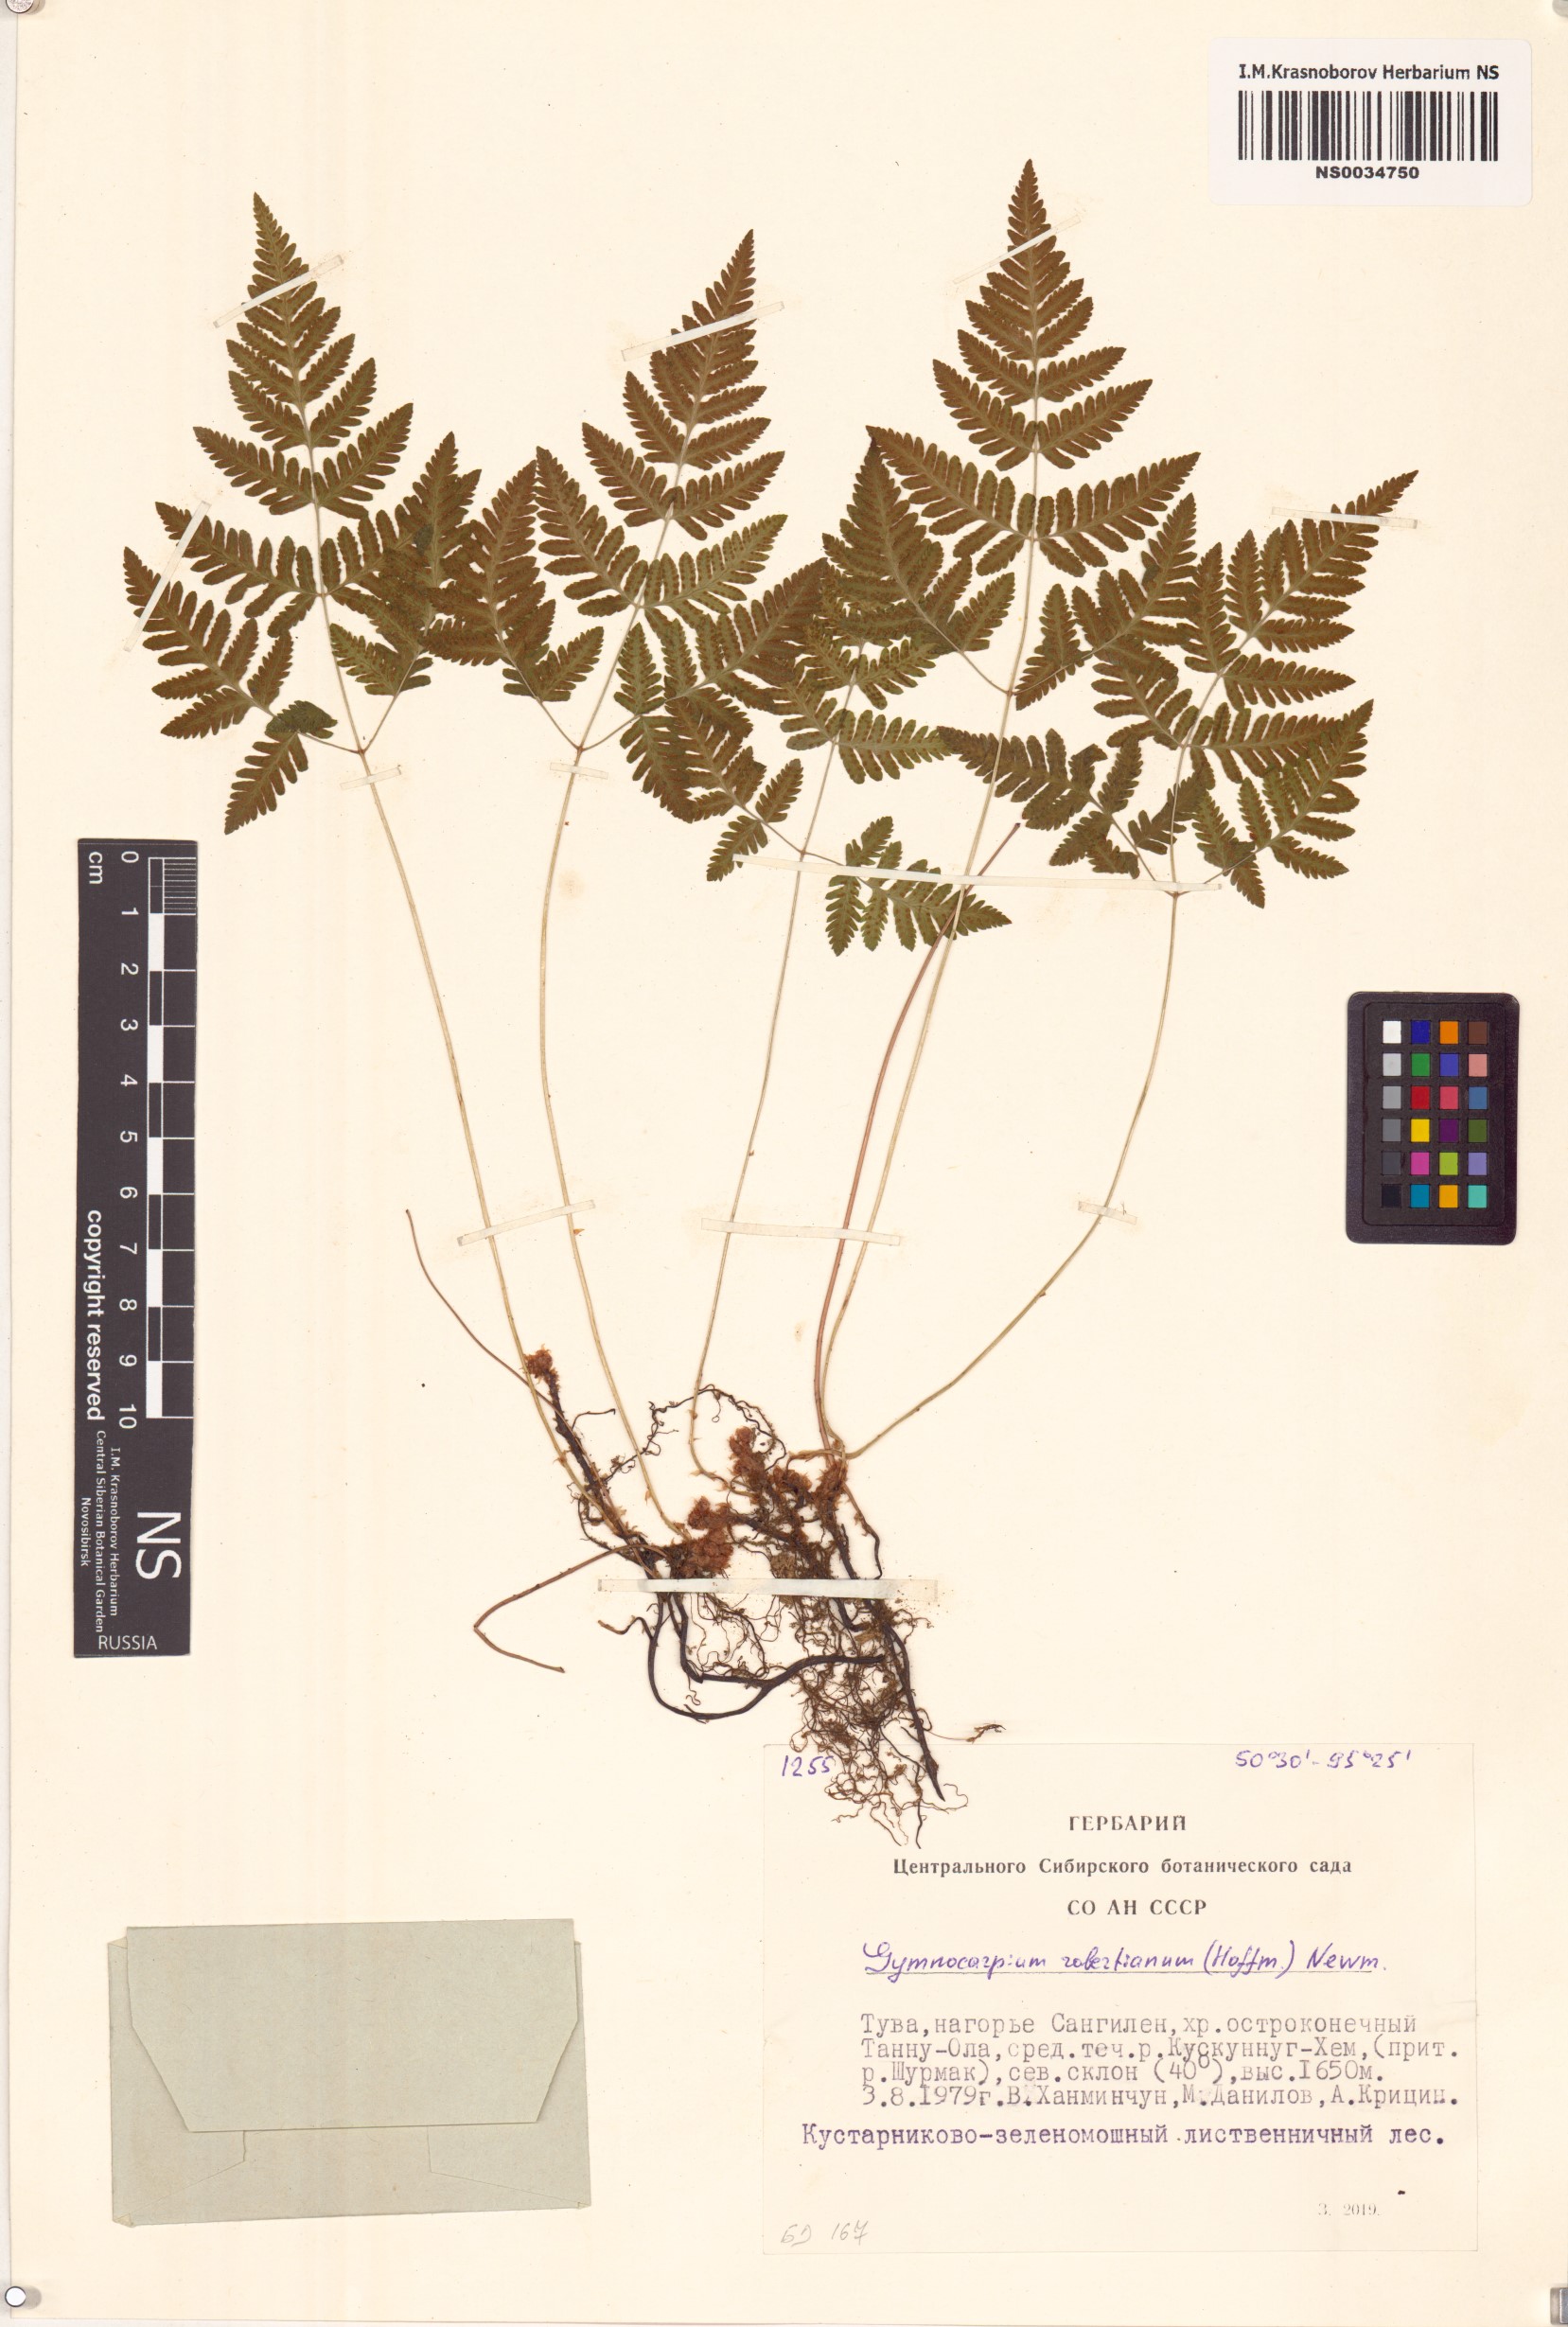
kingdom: Plantae
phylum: Tracheophyta
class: Polypodiopsida
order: Polypodiales
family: Cystopteridaceae
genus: Gymnocarpium
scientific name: Gymnocarpium robertianum
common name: Limestone fern
